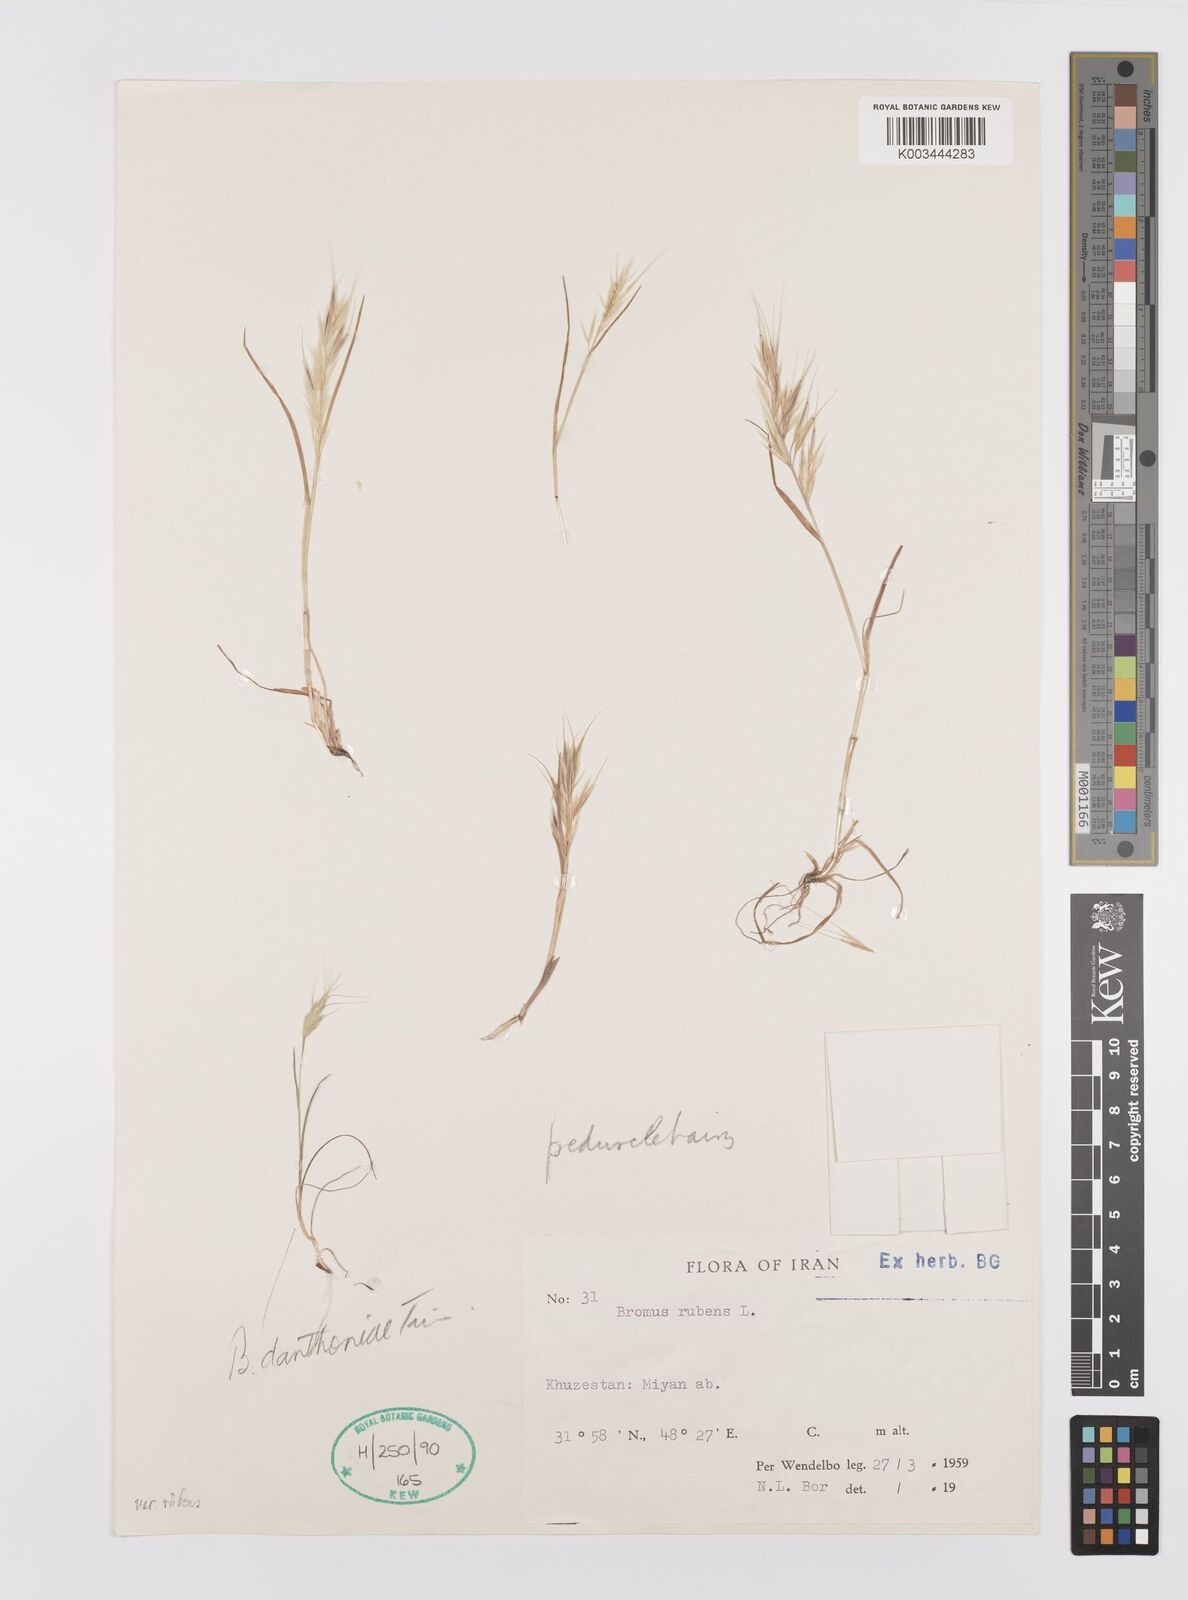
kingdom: Plantae
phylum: Tracheophyta
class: Liliopsida
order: Poales
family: Poaceae
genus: Bromus
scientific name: Bromus madritensis
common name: Compact brome
